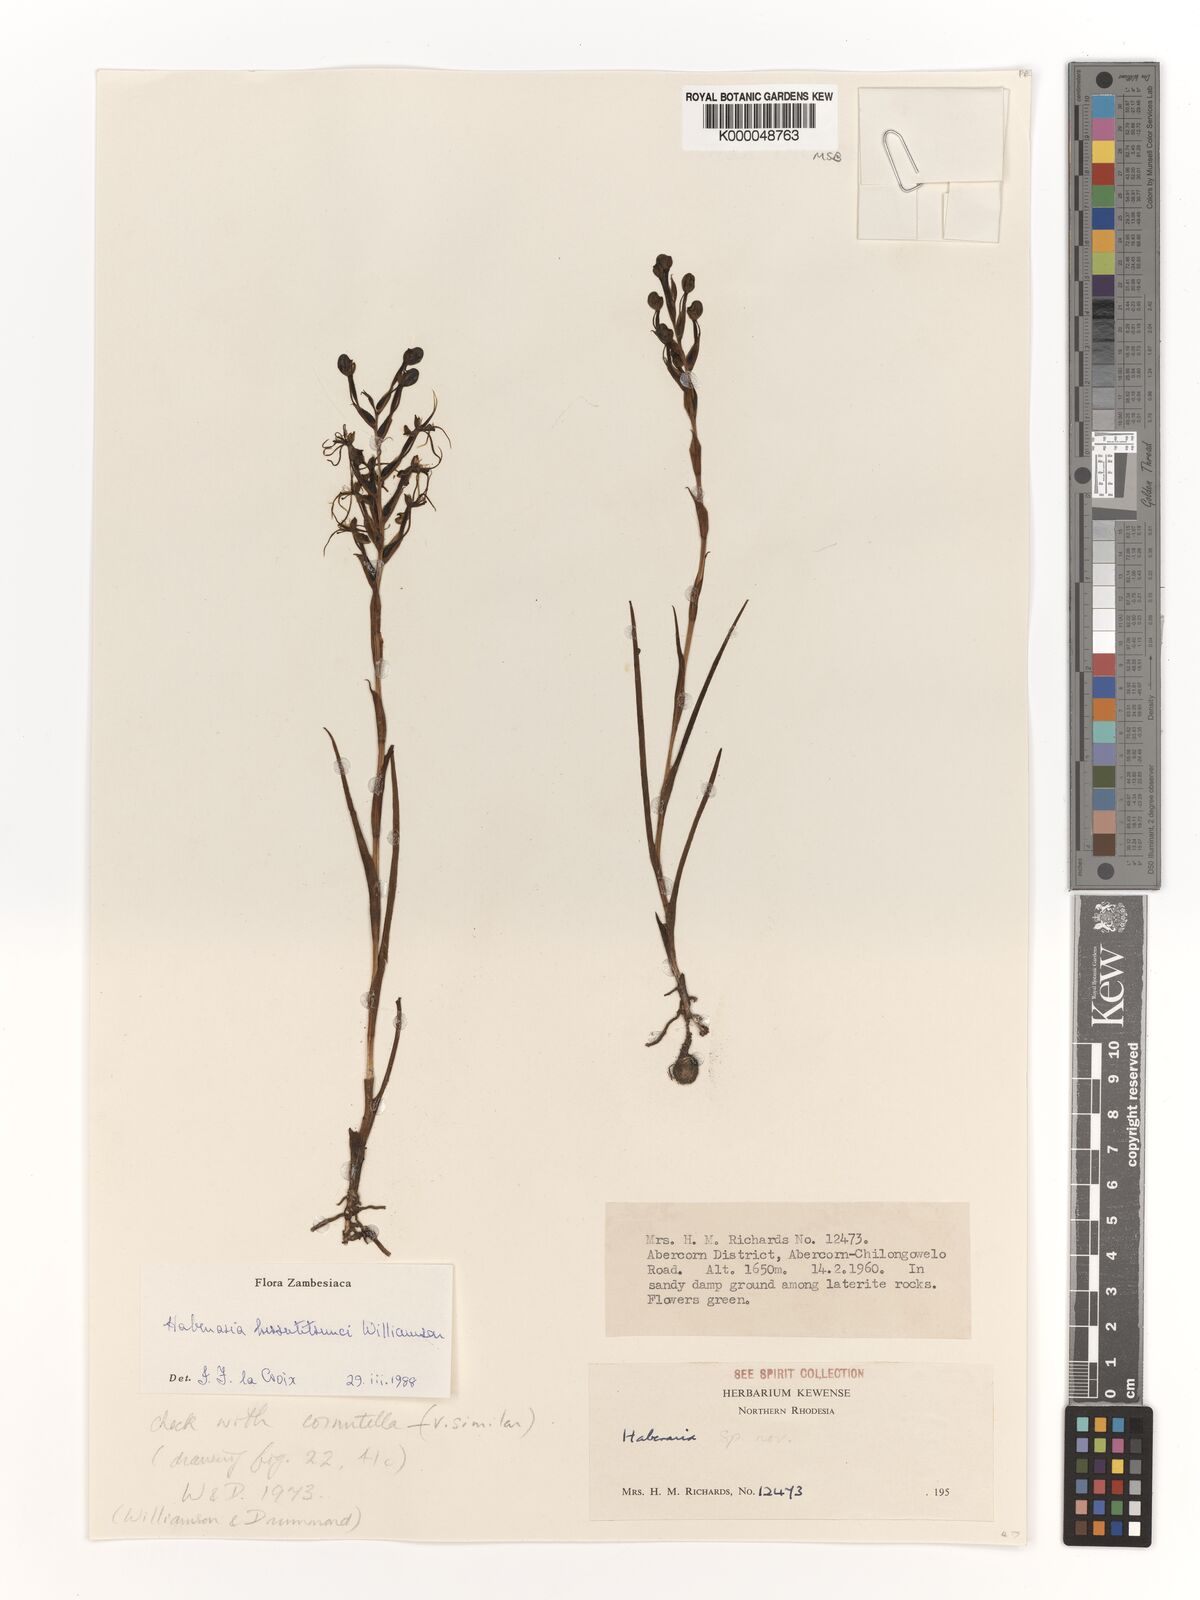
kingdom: Plantae
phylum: Tracheophyta
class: Liliopsida
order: Asparagales
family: Orchidaceae
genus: Habenaria
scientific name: Habenaria
